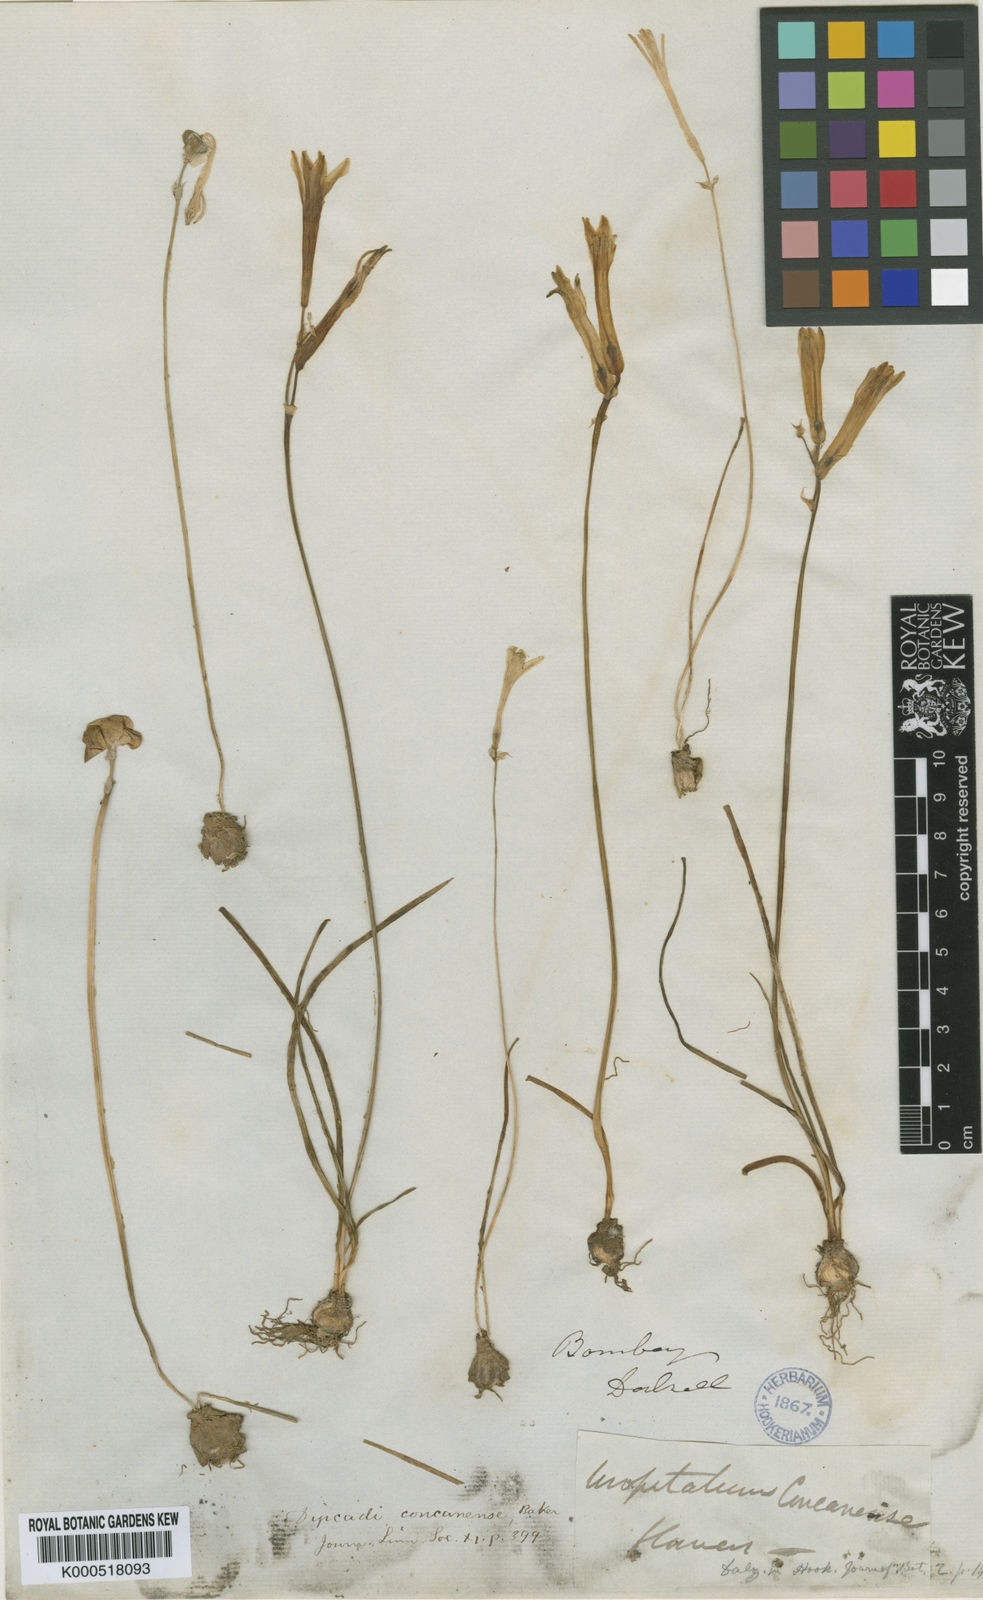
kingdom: Plantae
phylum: Tracheophyta
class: Liliopsida
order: Asparagales
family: Asparagaceae
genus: Dipcadi
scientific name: Dipcadi concanense
